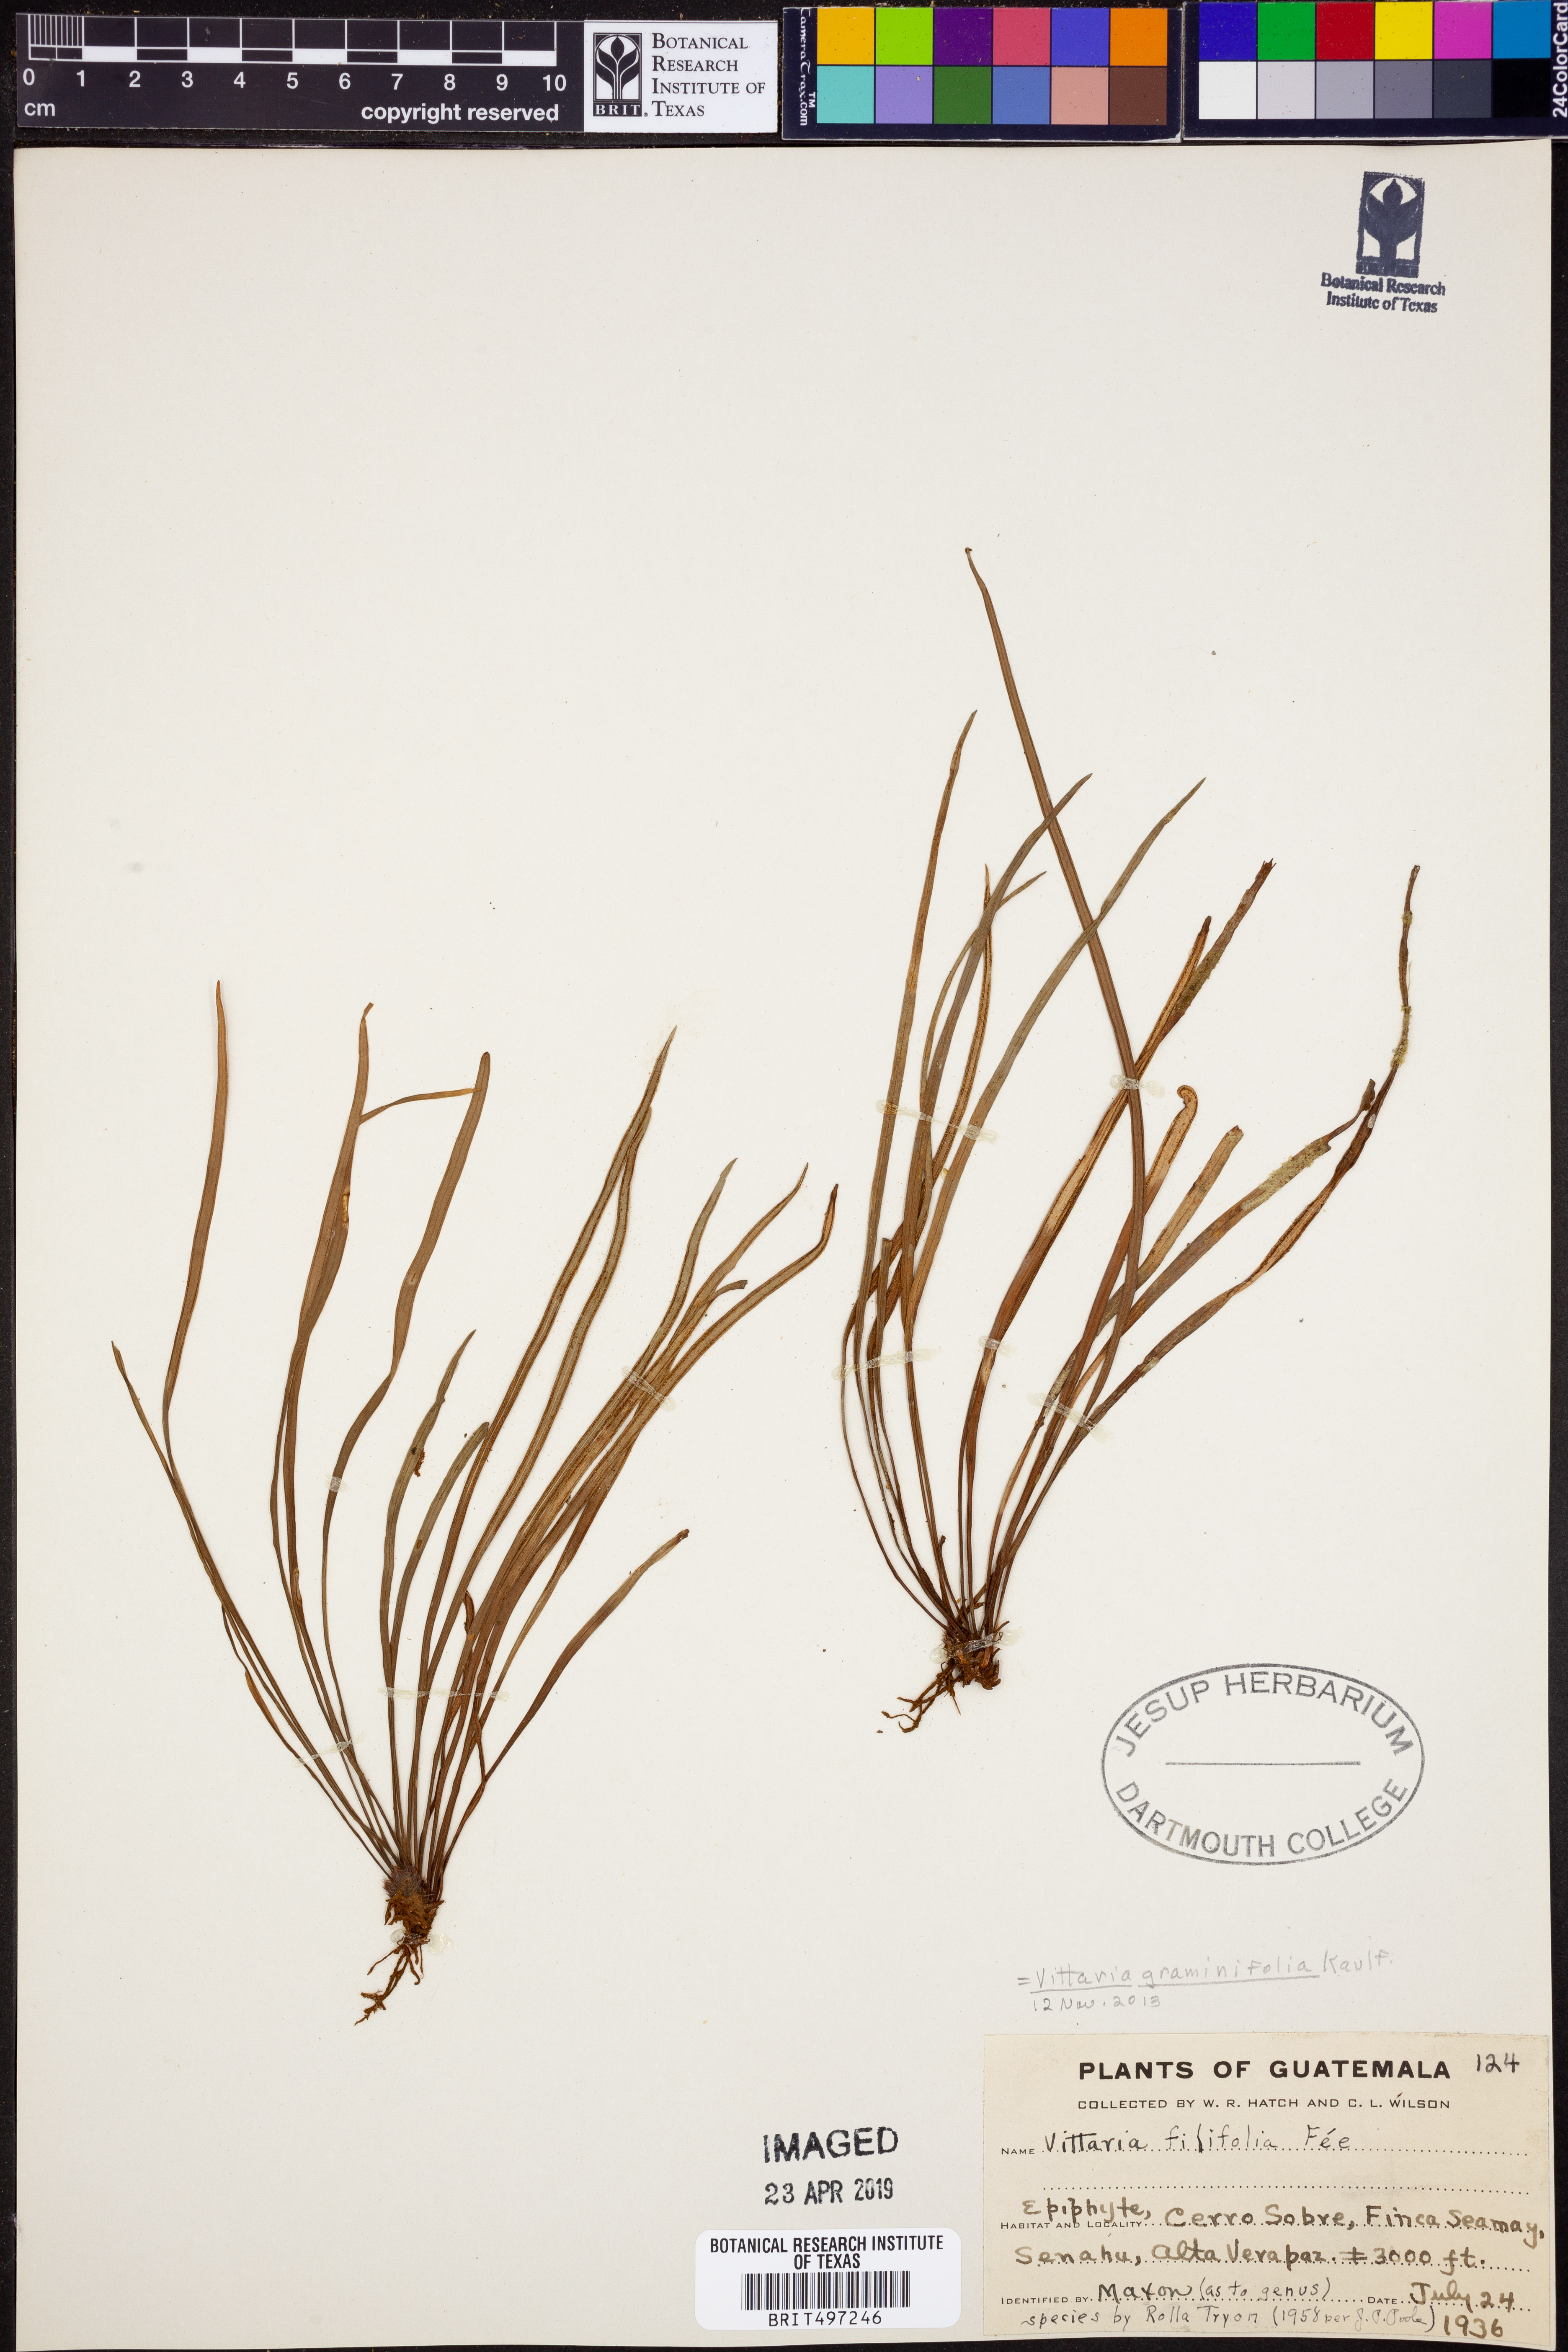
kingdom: Plantae
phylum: Tracheophyta
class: Polypodiopsida
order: Polypodiales
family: Pteridaceae
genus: Vittaria
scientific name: Vittaria graminifolia
